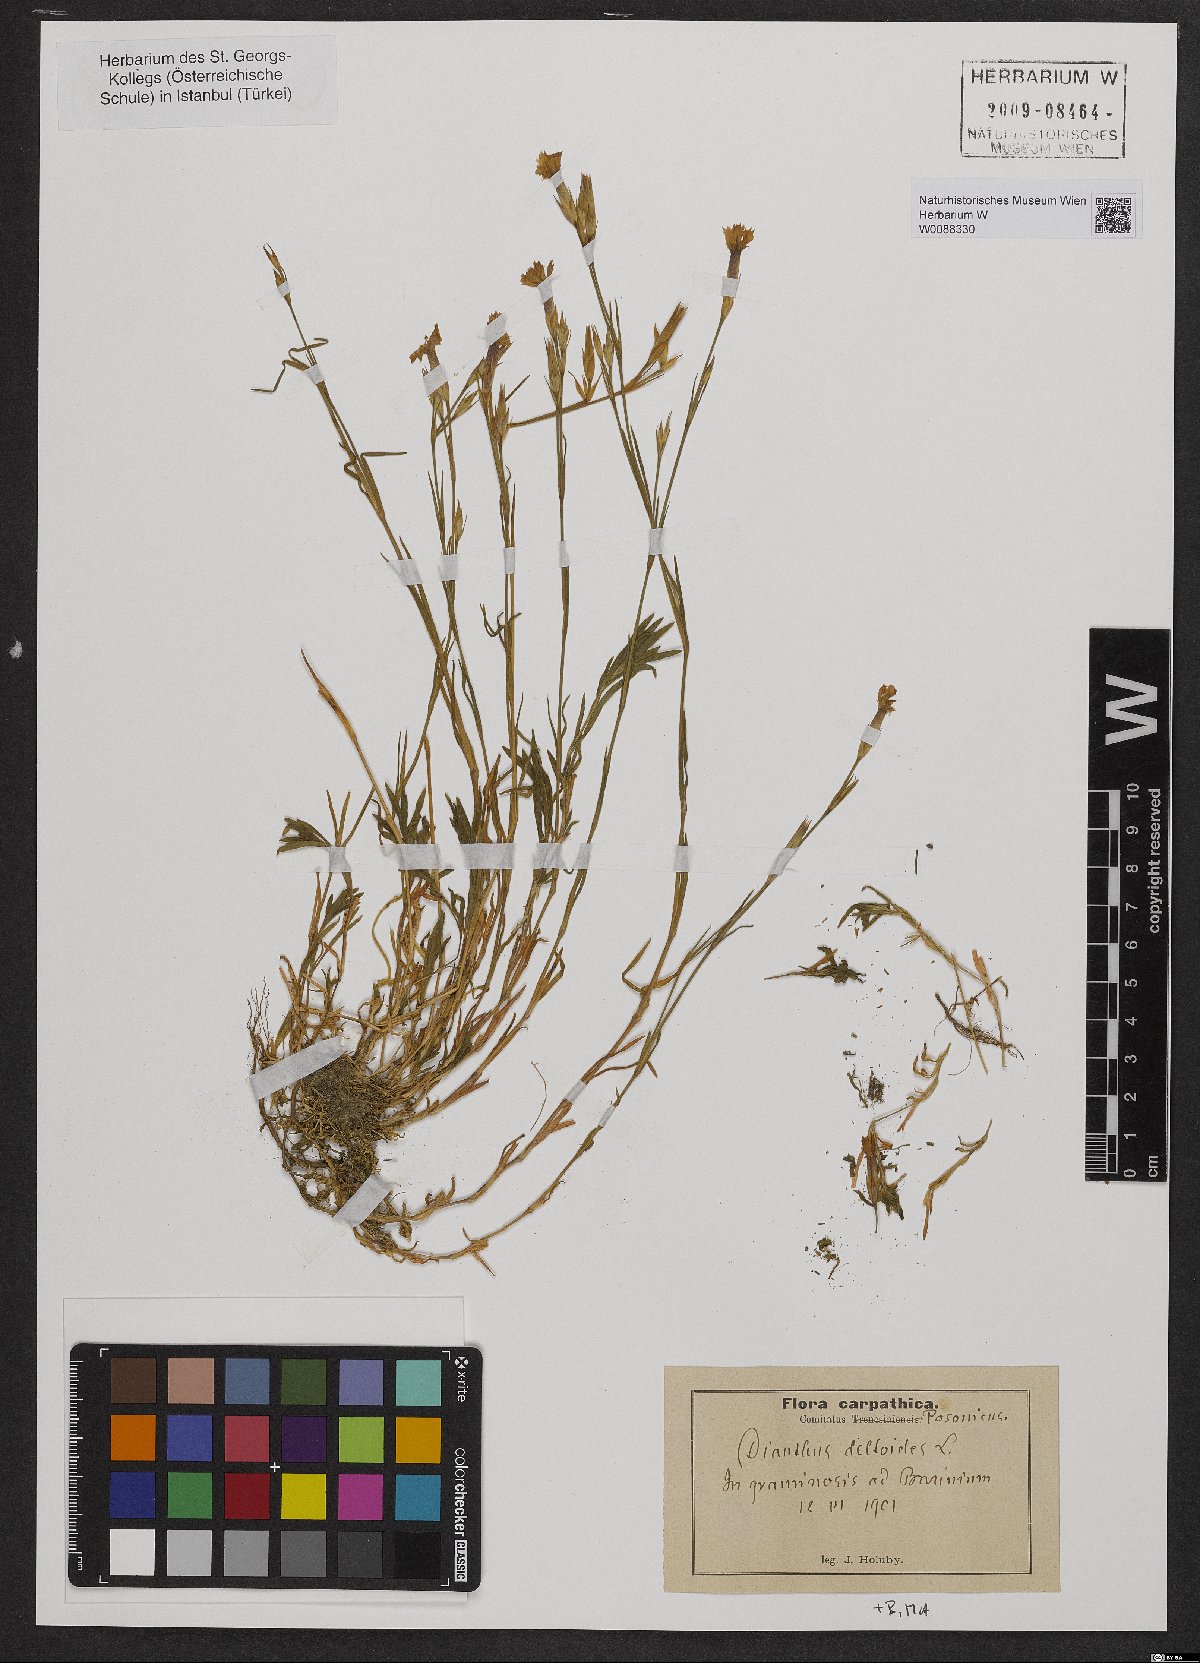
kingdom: Plantae
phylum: Tracheophyta
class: Magnoliopsida
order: Caryophyllales
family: Caryophyllaceae
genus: Dianthus
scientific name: Dianthus deltoides
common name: Maiden pink
